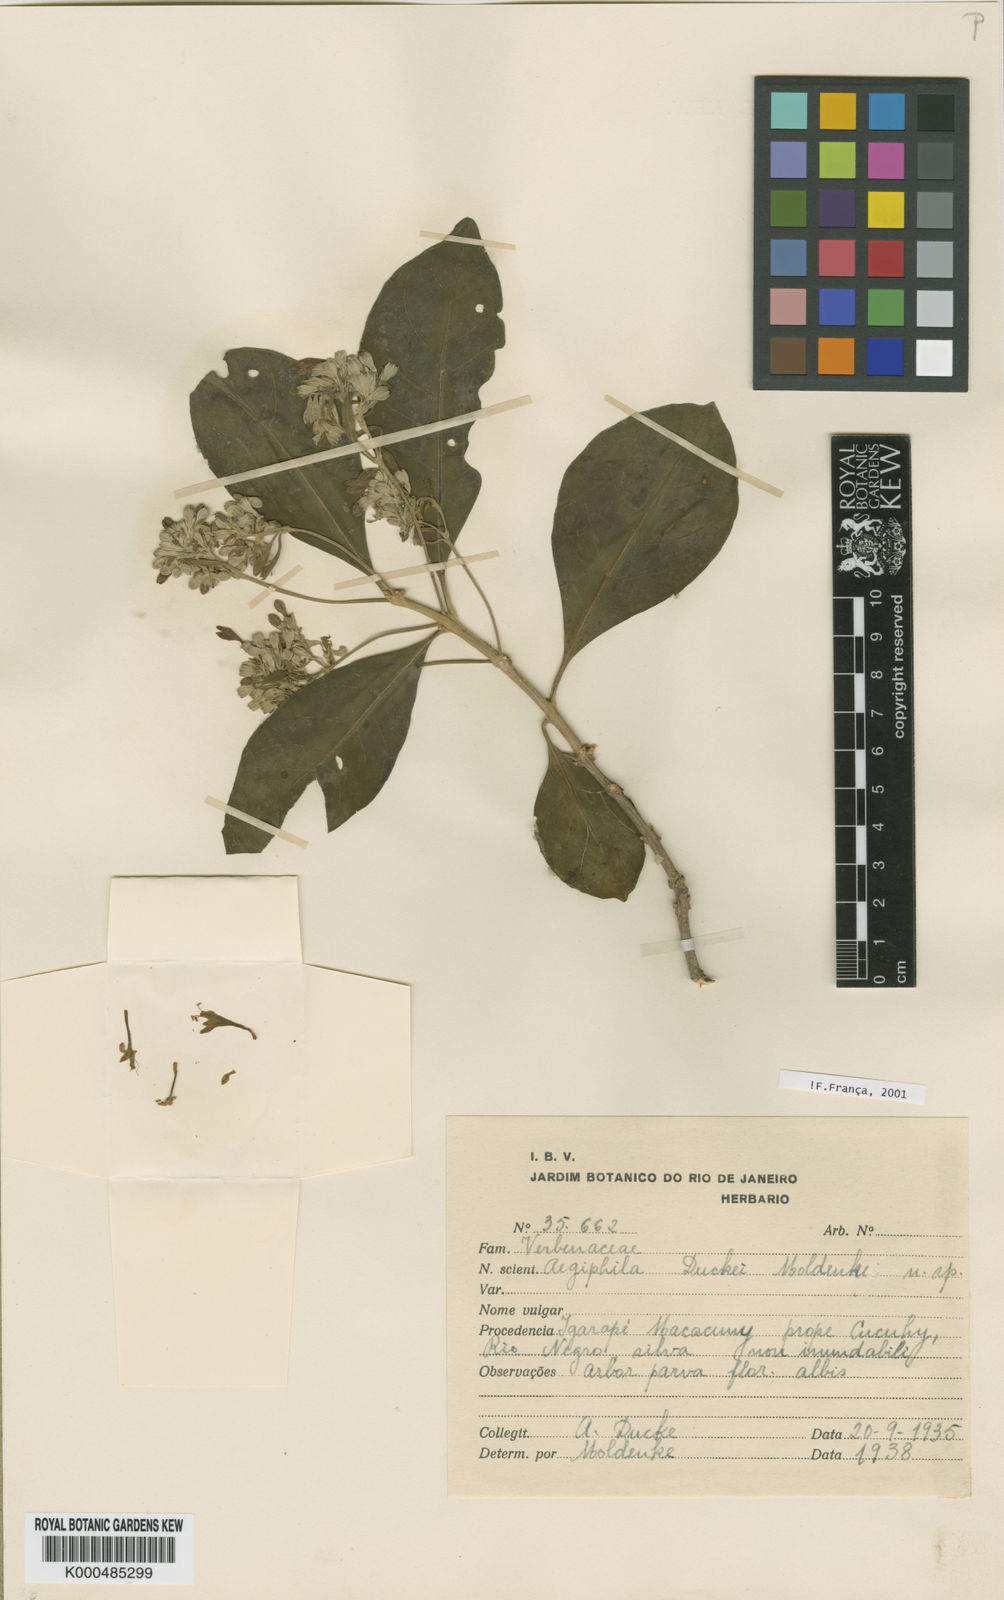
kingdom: Plantae
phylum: Tracheophyta
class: Magnoliopsida
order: Lamiales
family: Lamiaceae
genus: Aegiphila
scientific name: Aegiphila duckei
